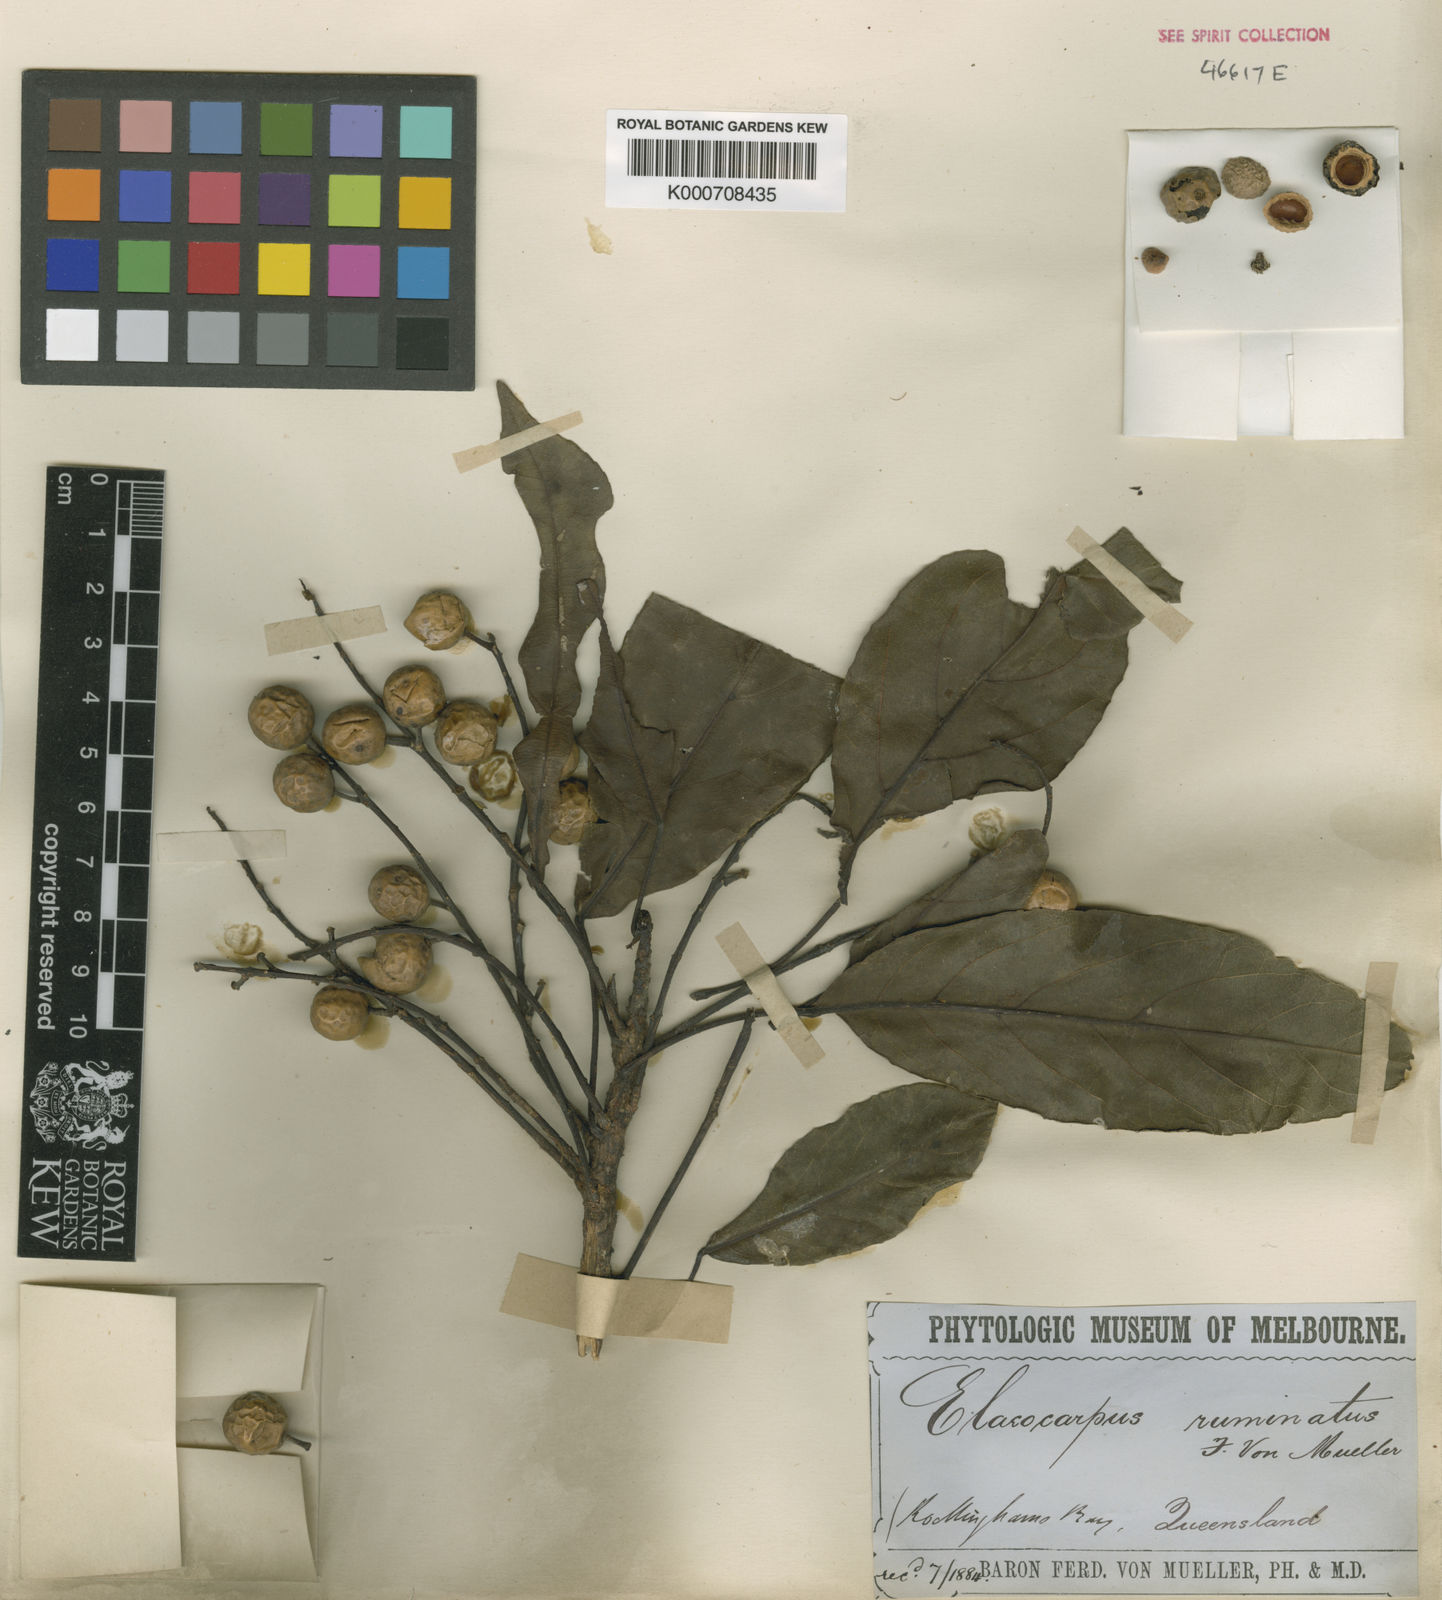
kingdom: Plantae
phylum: Tracheophyta
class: Magnoliopsida
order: Oxalidales
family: Elaeocarpaceae
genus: Elaeocarpus
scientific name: Elaeocarpus ruminatus
